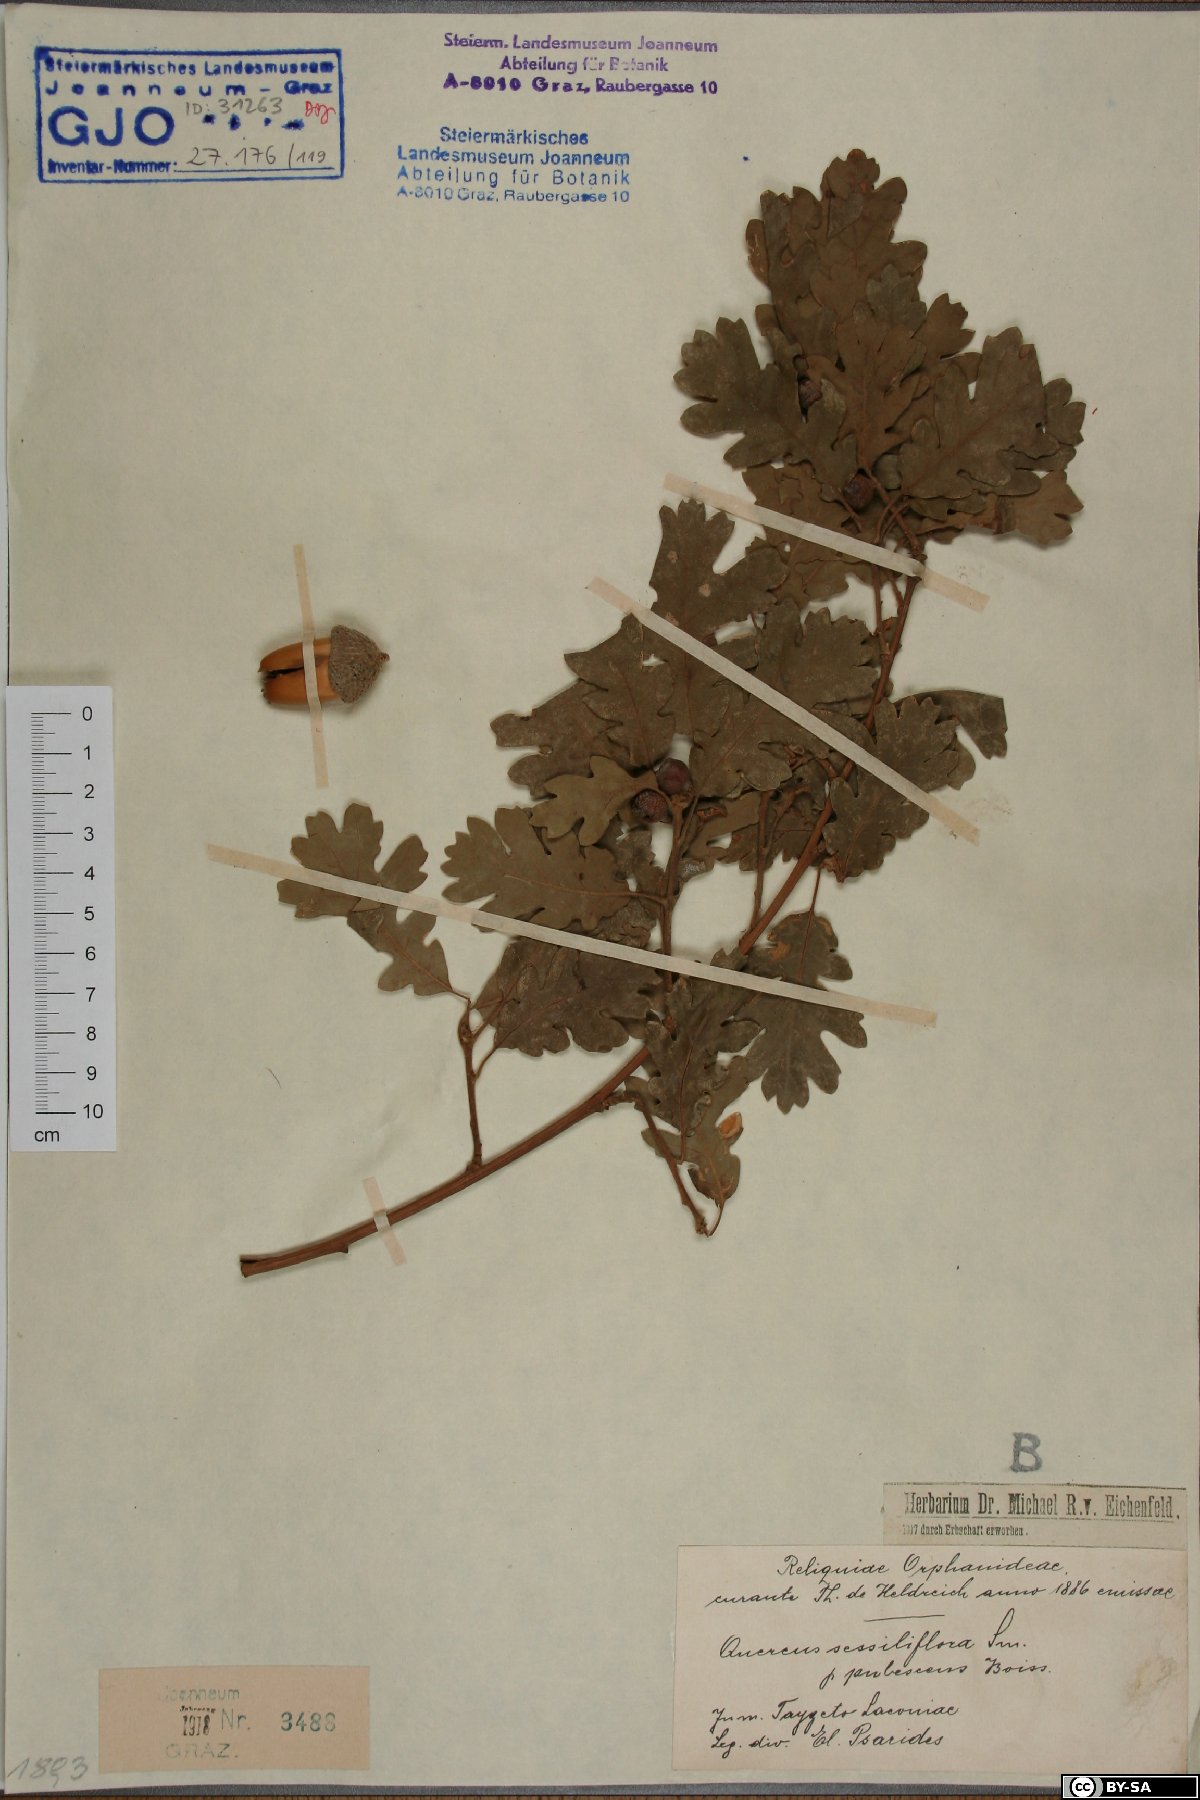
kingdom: Plantae
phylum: Tracheophyta
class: Magnoliopsida
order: Fagales
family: Fagaceae
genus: Quercus
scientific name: Quercus pubescens
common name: Downy oak
